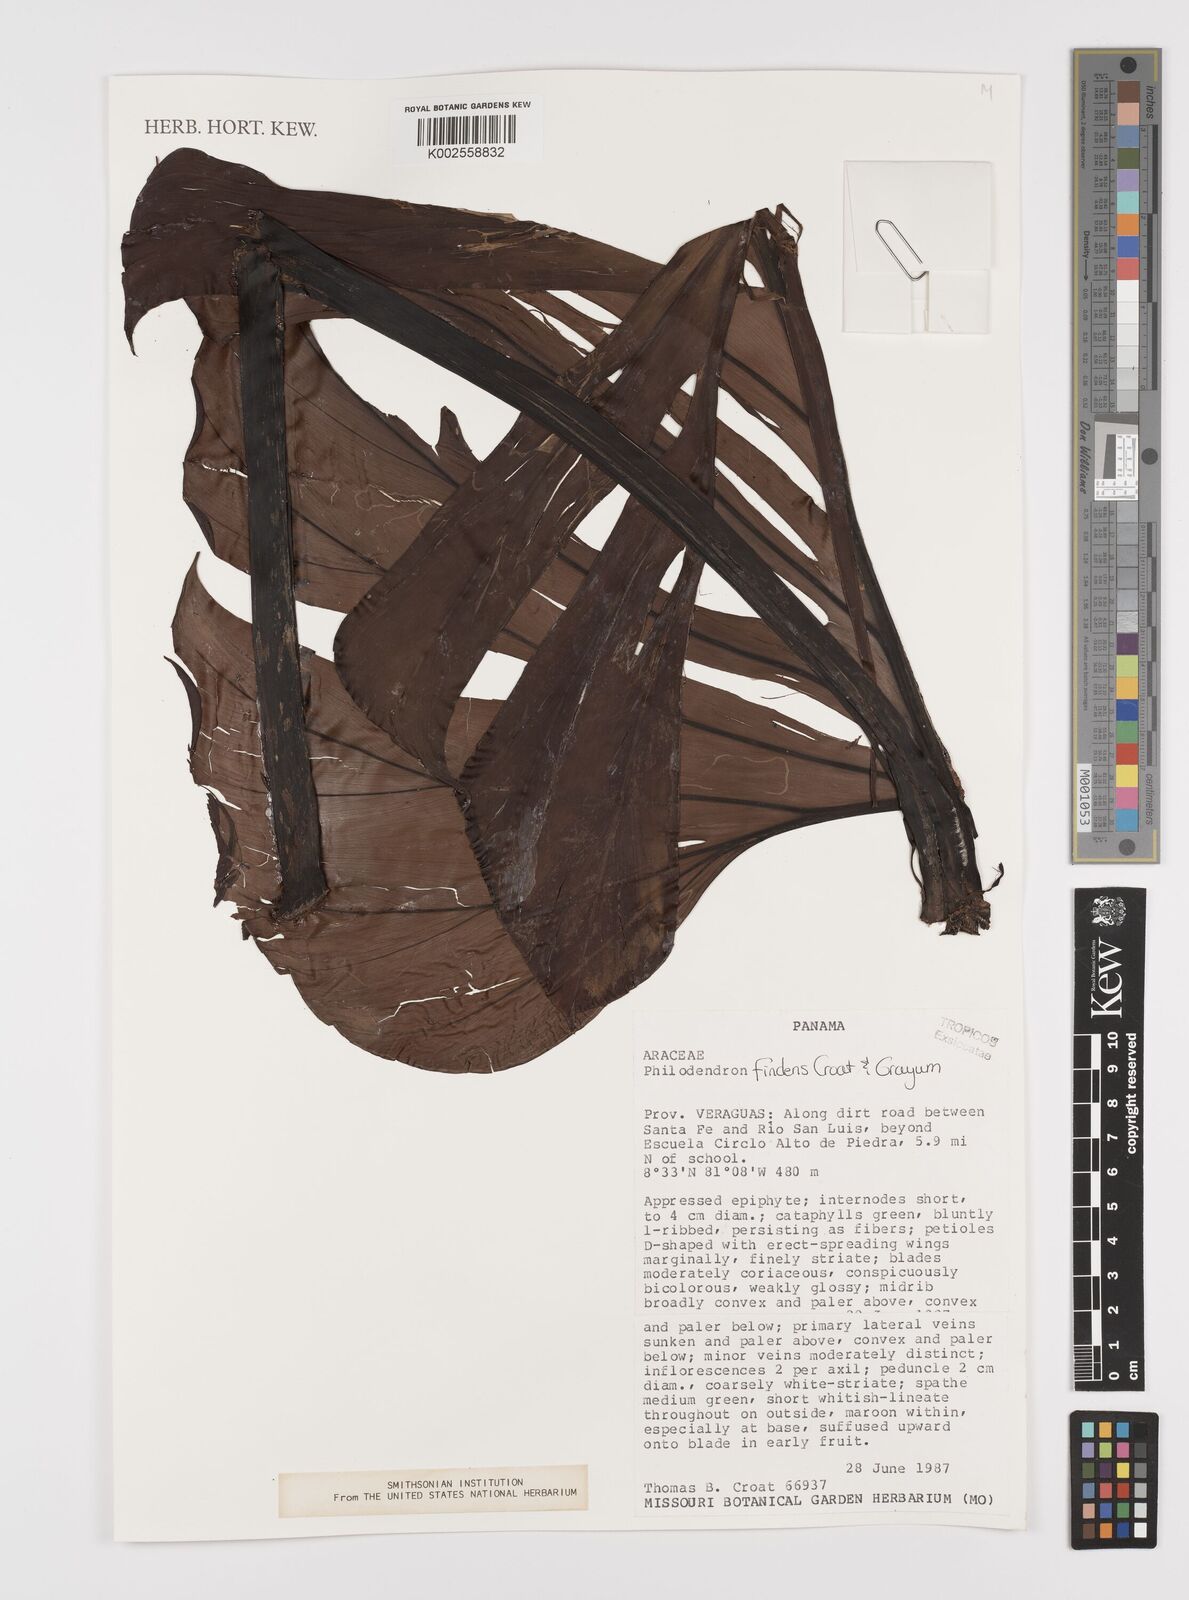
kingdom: Plantae
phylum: Tracheophyta
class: Liliopsida
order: Alismatales
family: Araceae
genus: Philodendron
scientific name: Philodendron findens
